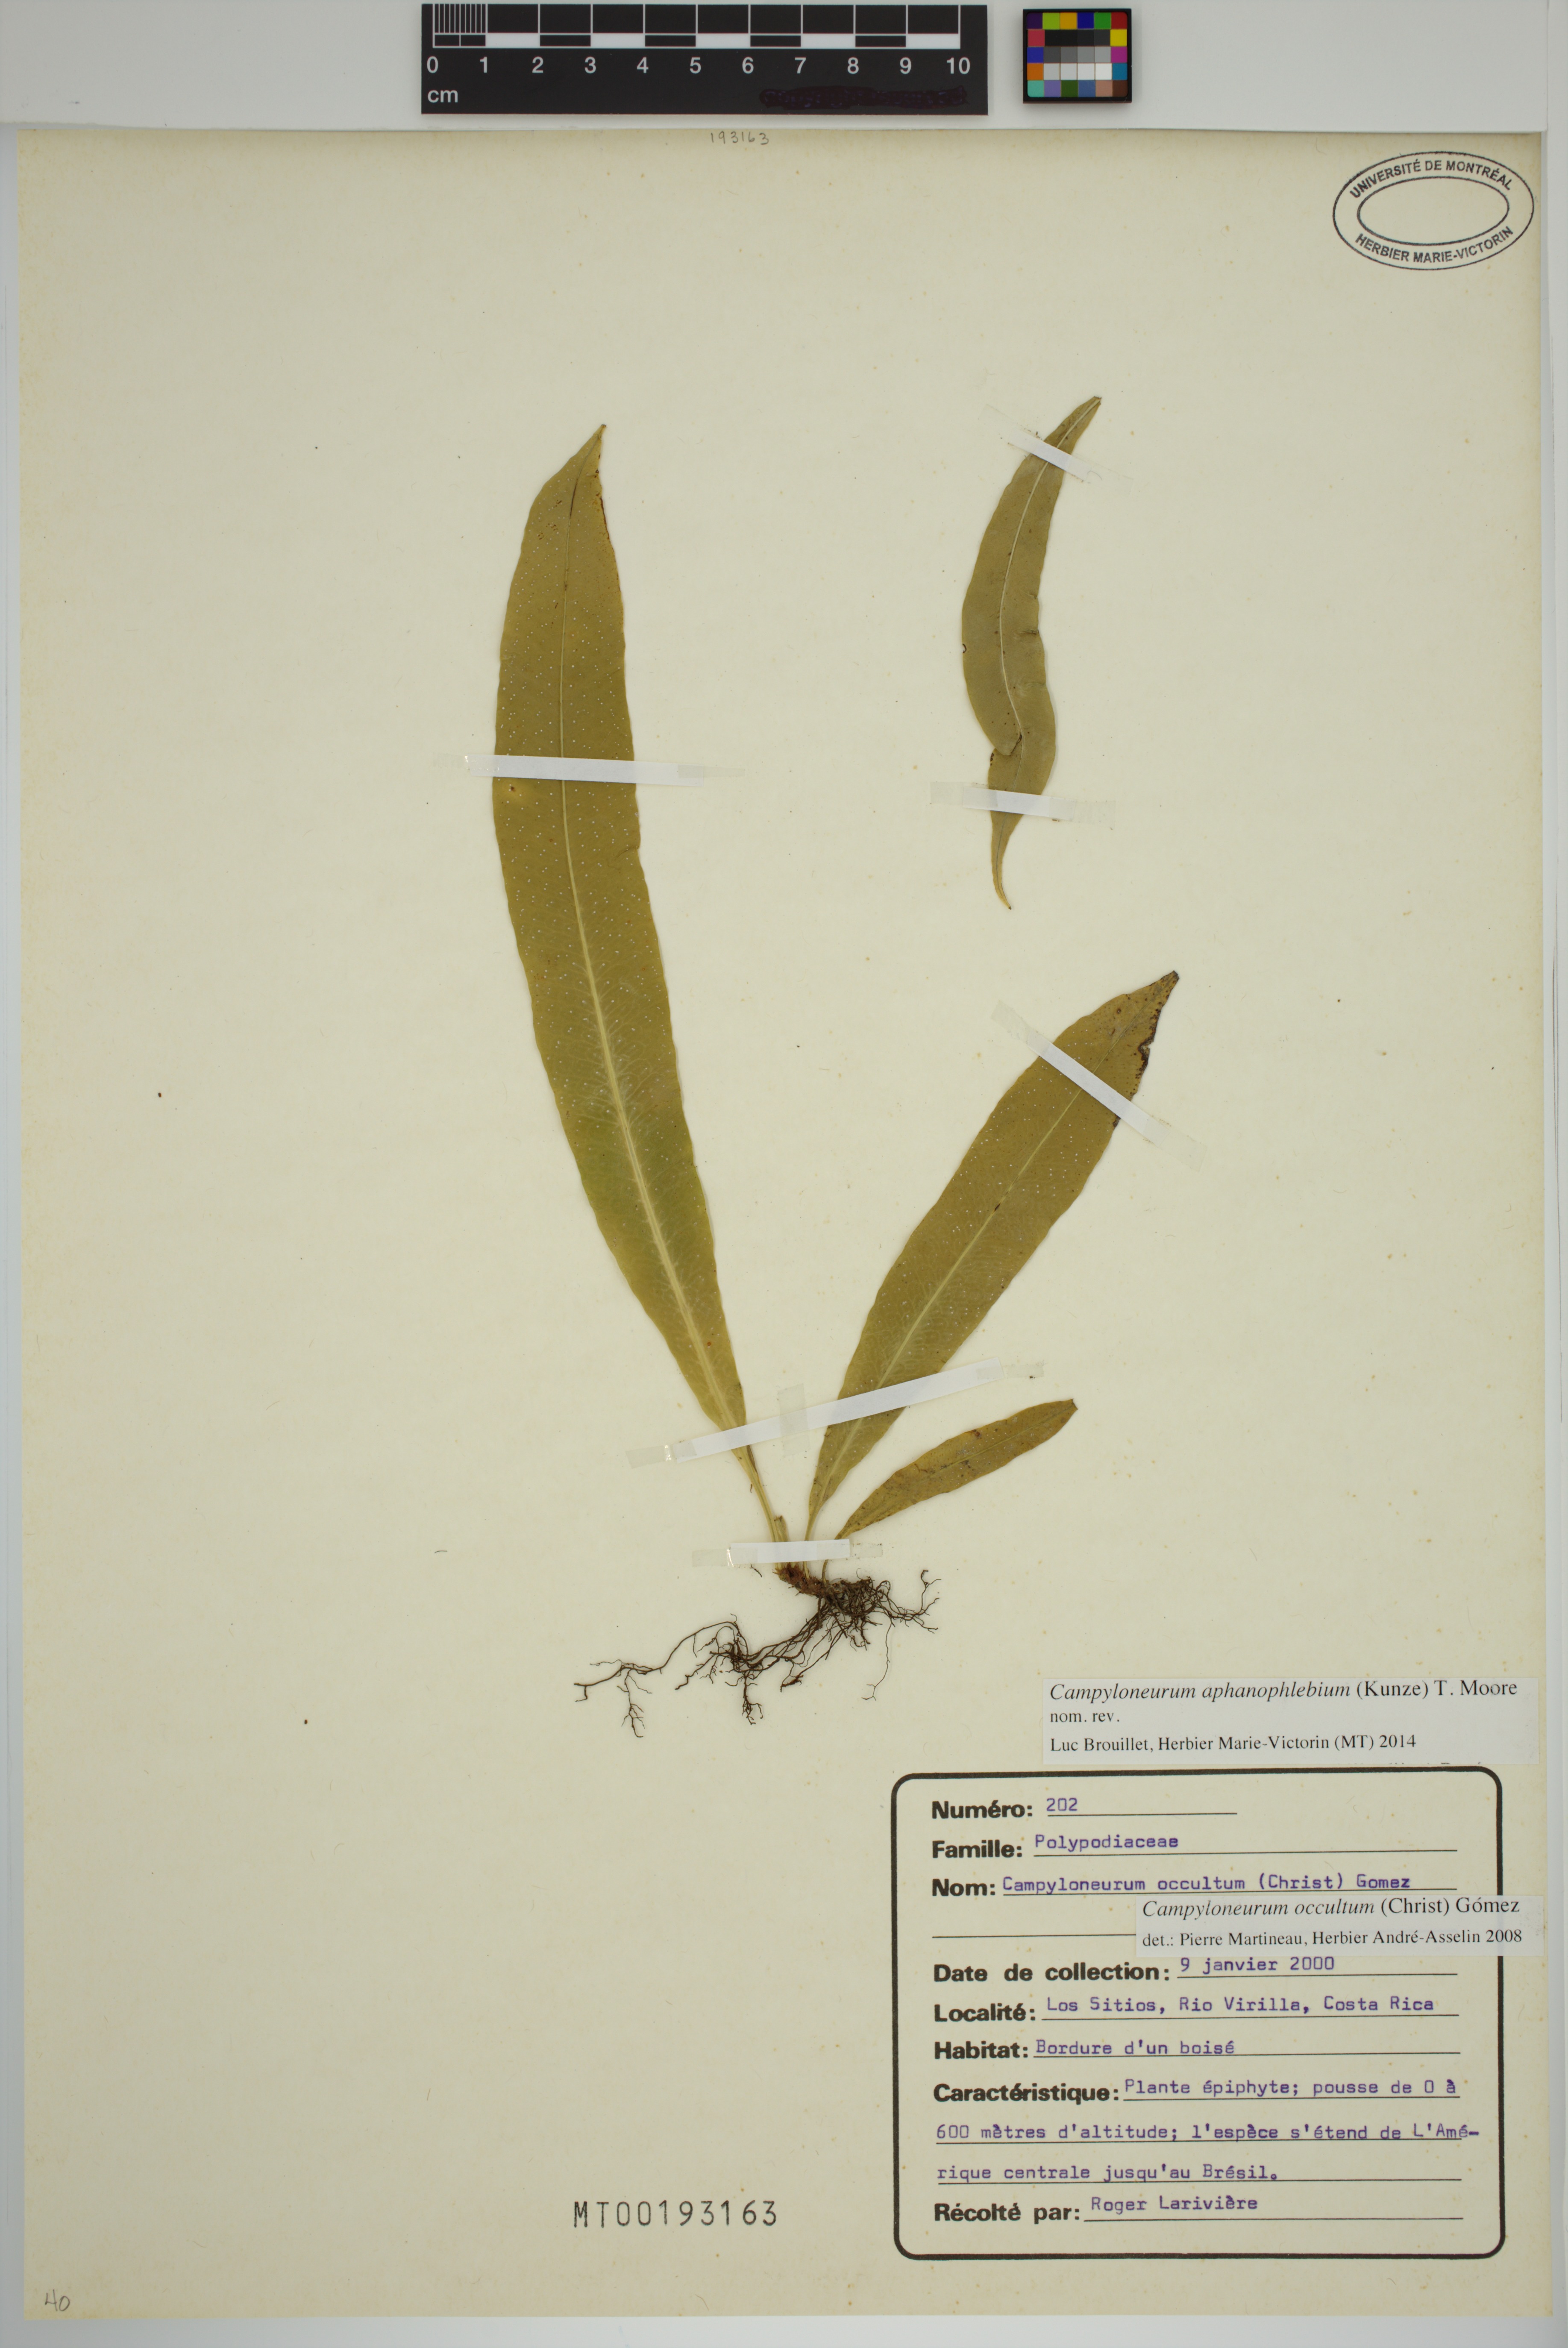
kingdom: Plantae
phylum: Tracheophyta
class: Polypodiopsida
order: Polypodiales
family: Polypodiaceae
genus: Campyloneurum
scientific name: Campyloneurum aphanophlebium
